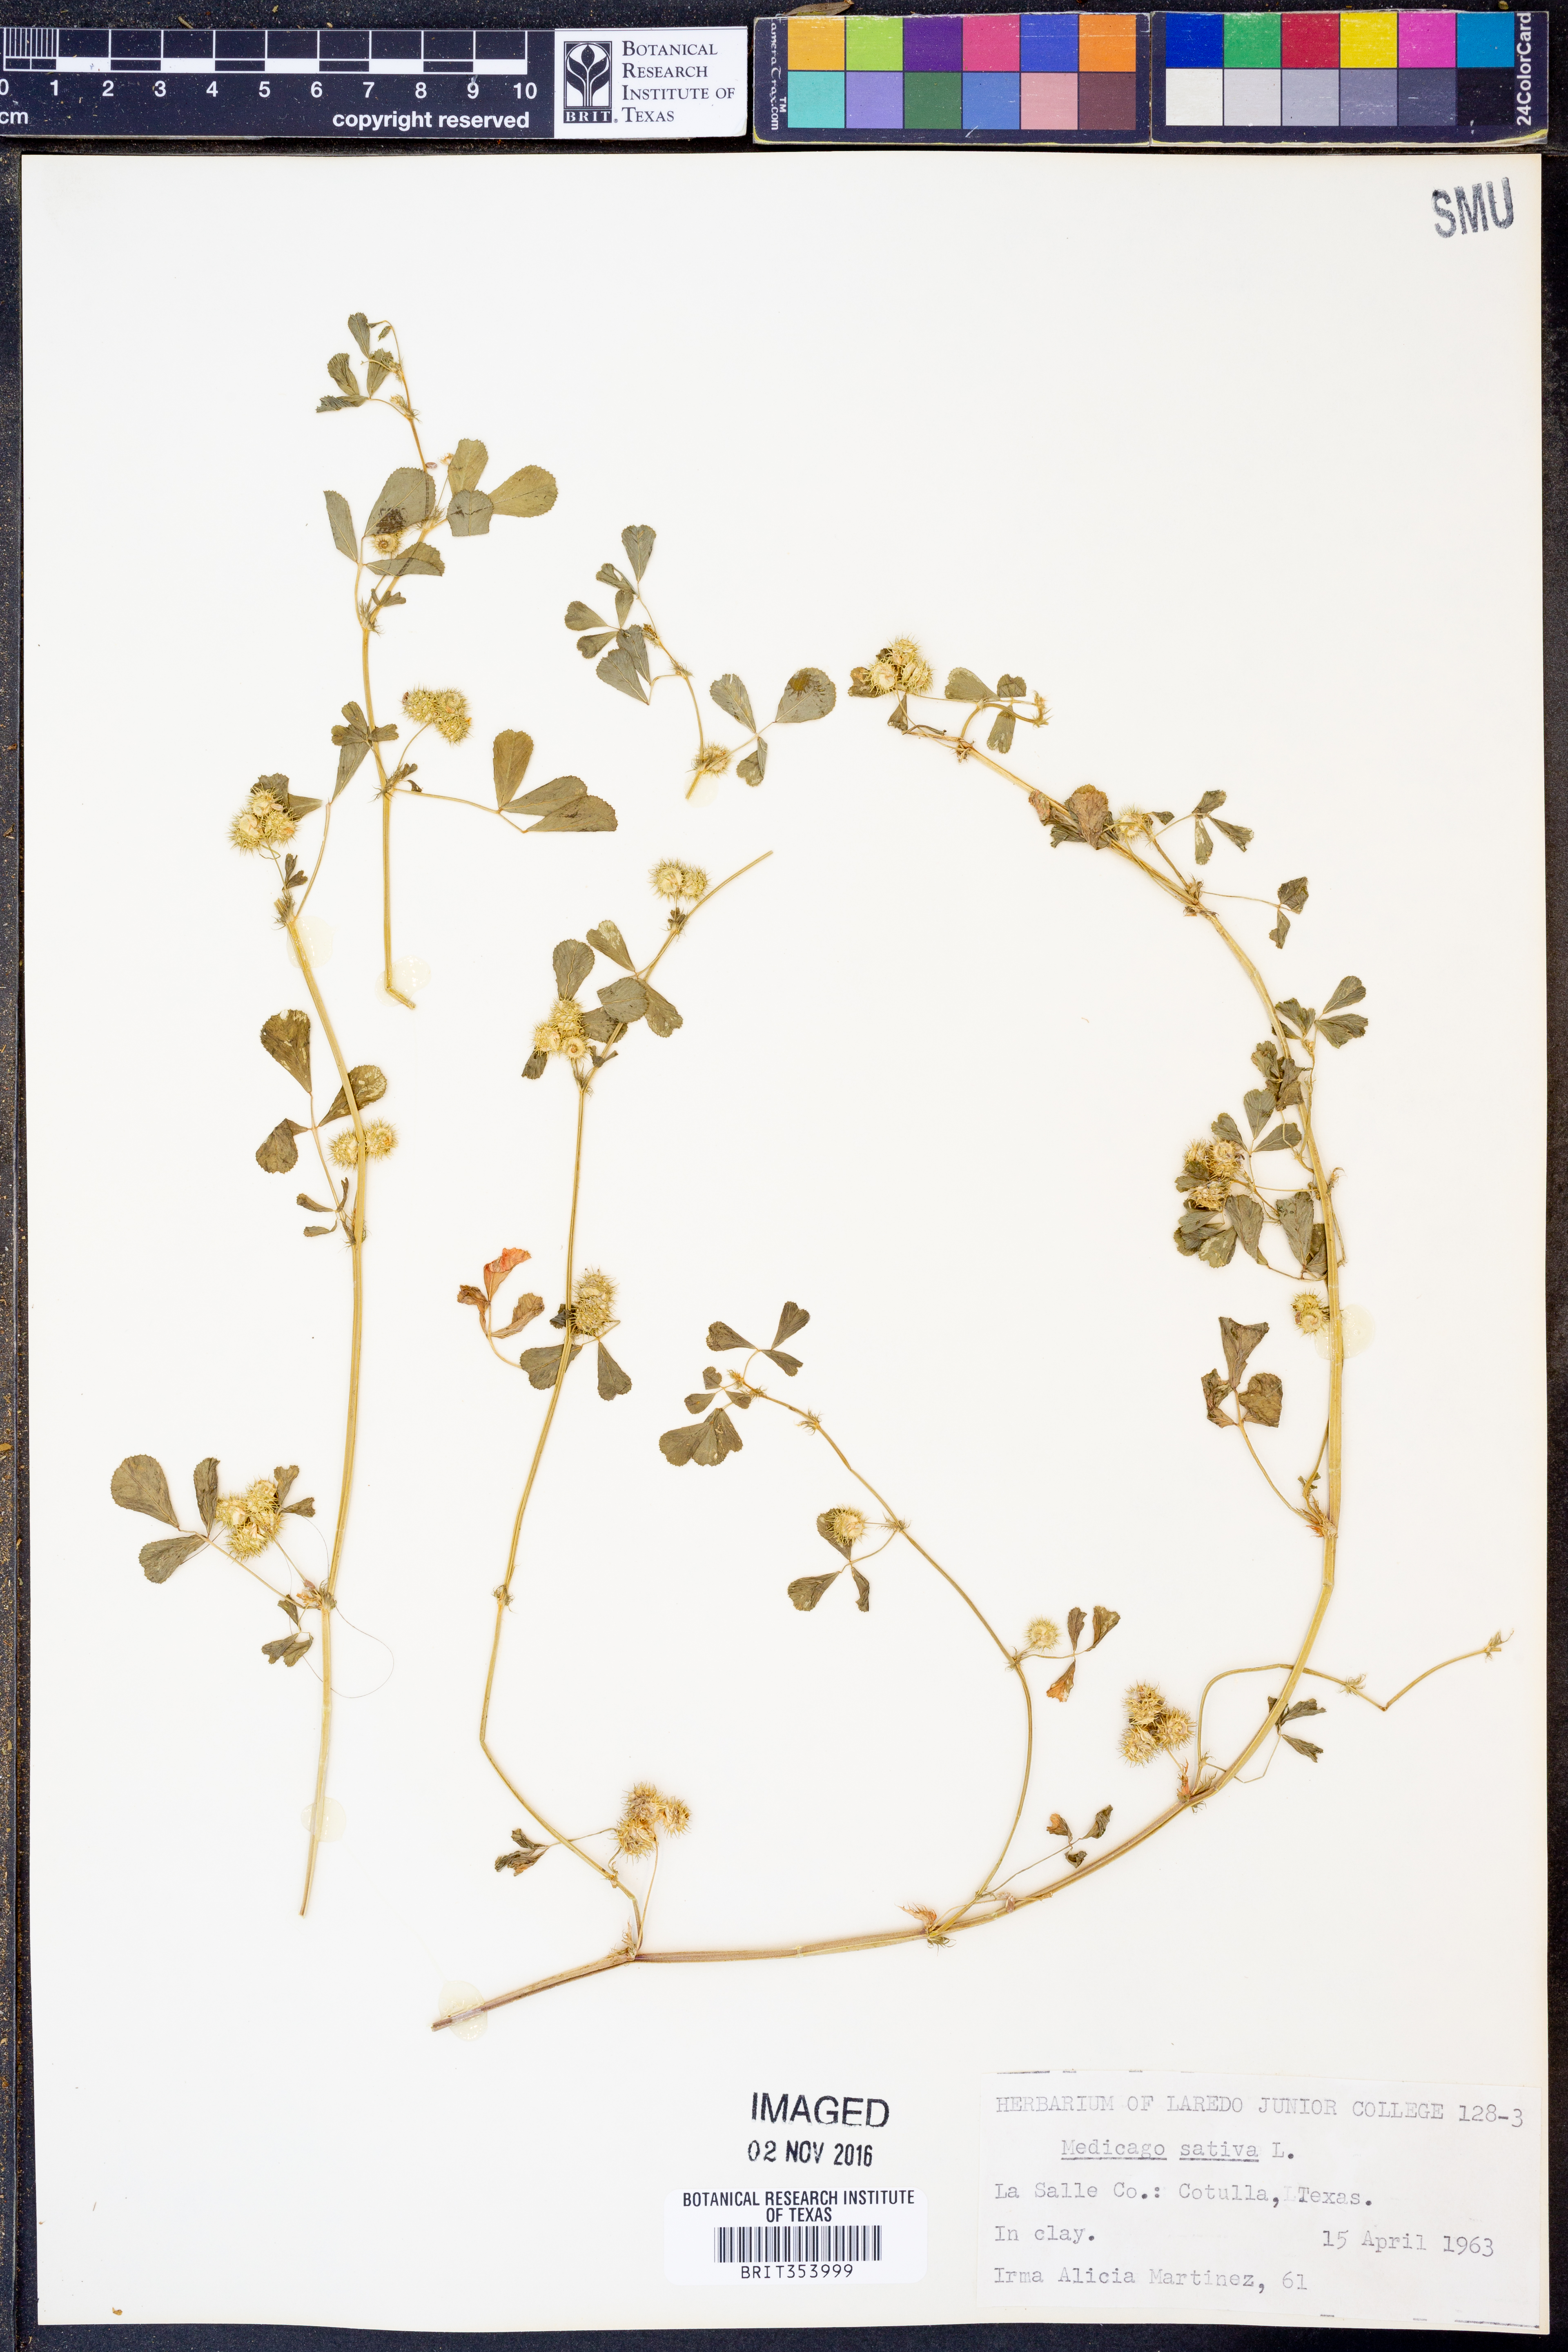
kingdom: Plantae
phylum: Tracheophyta
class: Magnoliopsida
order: Fabales
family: Fabaceae
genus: Medicago
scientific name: Medicago sativa
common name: Alfalfa
